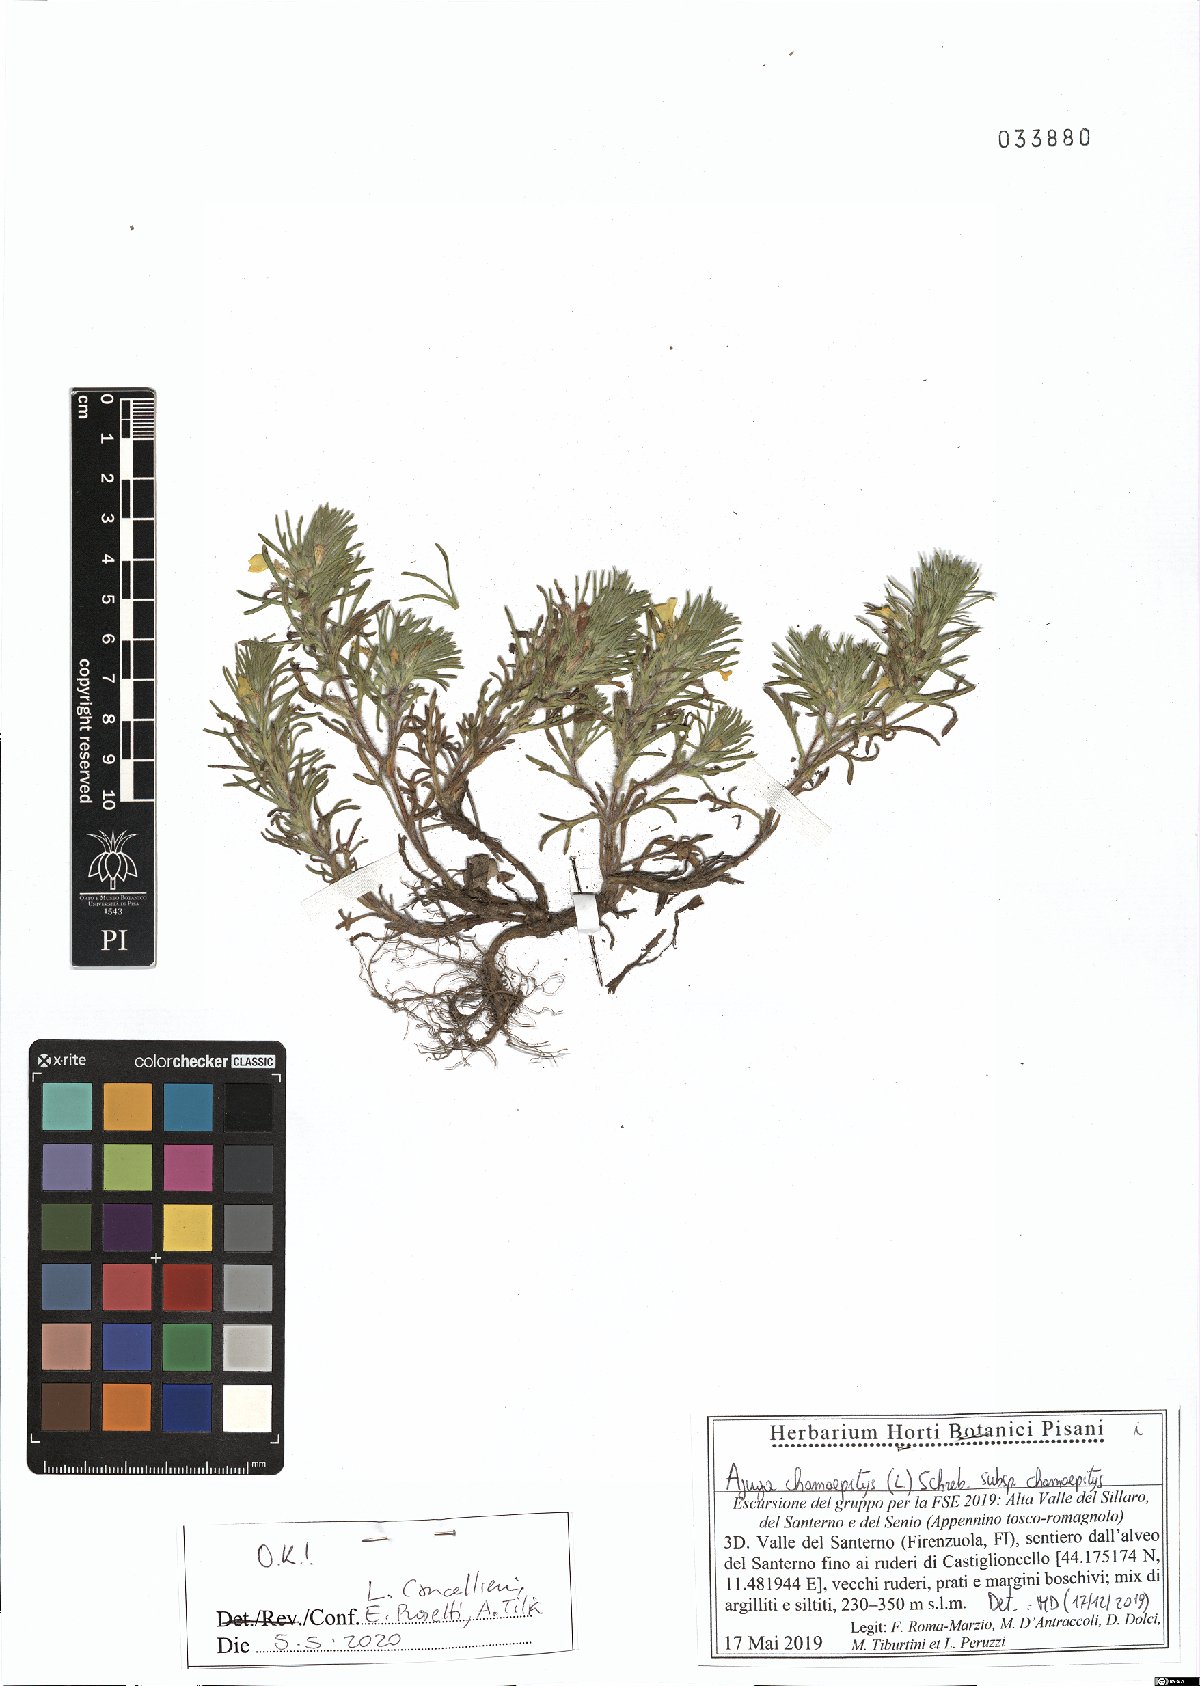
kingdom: Plantae
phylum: Tracheophyta
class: Magnoliopsida
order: Lamiales
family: Lamiaceae
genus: Ajuga
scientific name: Ajuga chamaepitys
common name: Ground-pine
